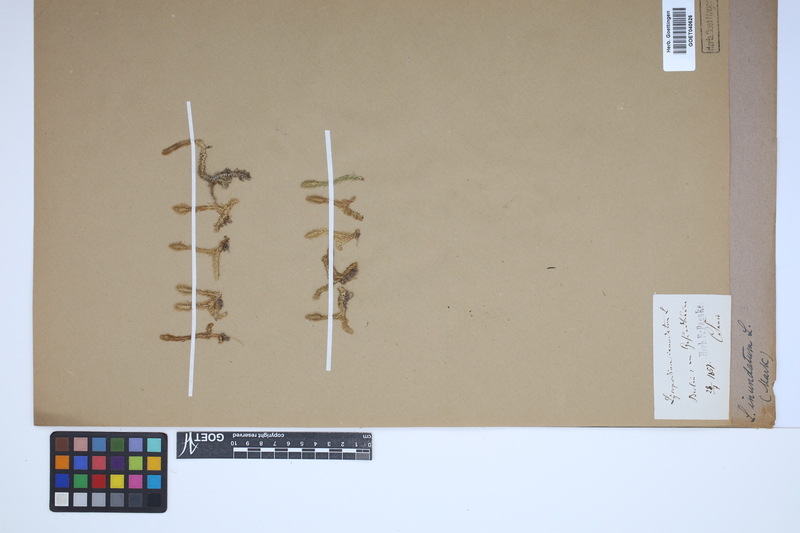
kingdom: Plantae
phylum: Tracheophyta
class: Lycopodiopsida
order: Lycopodiales
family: Lycopodiaceae
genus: Lycopodiella
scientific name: Lycopodiella inundata
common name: Marsh clubmoss
